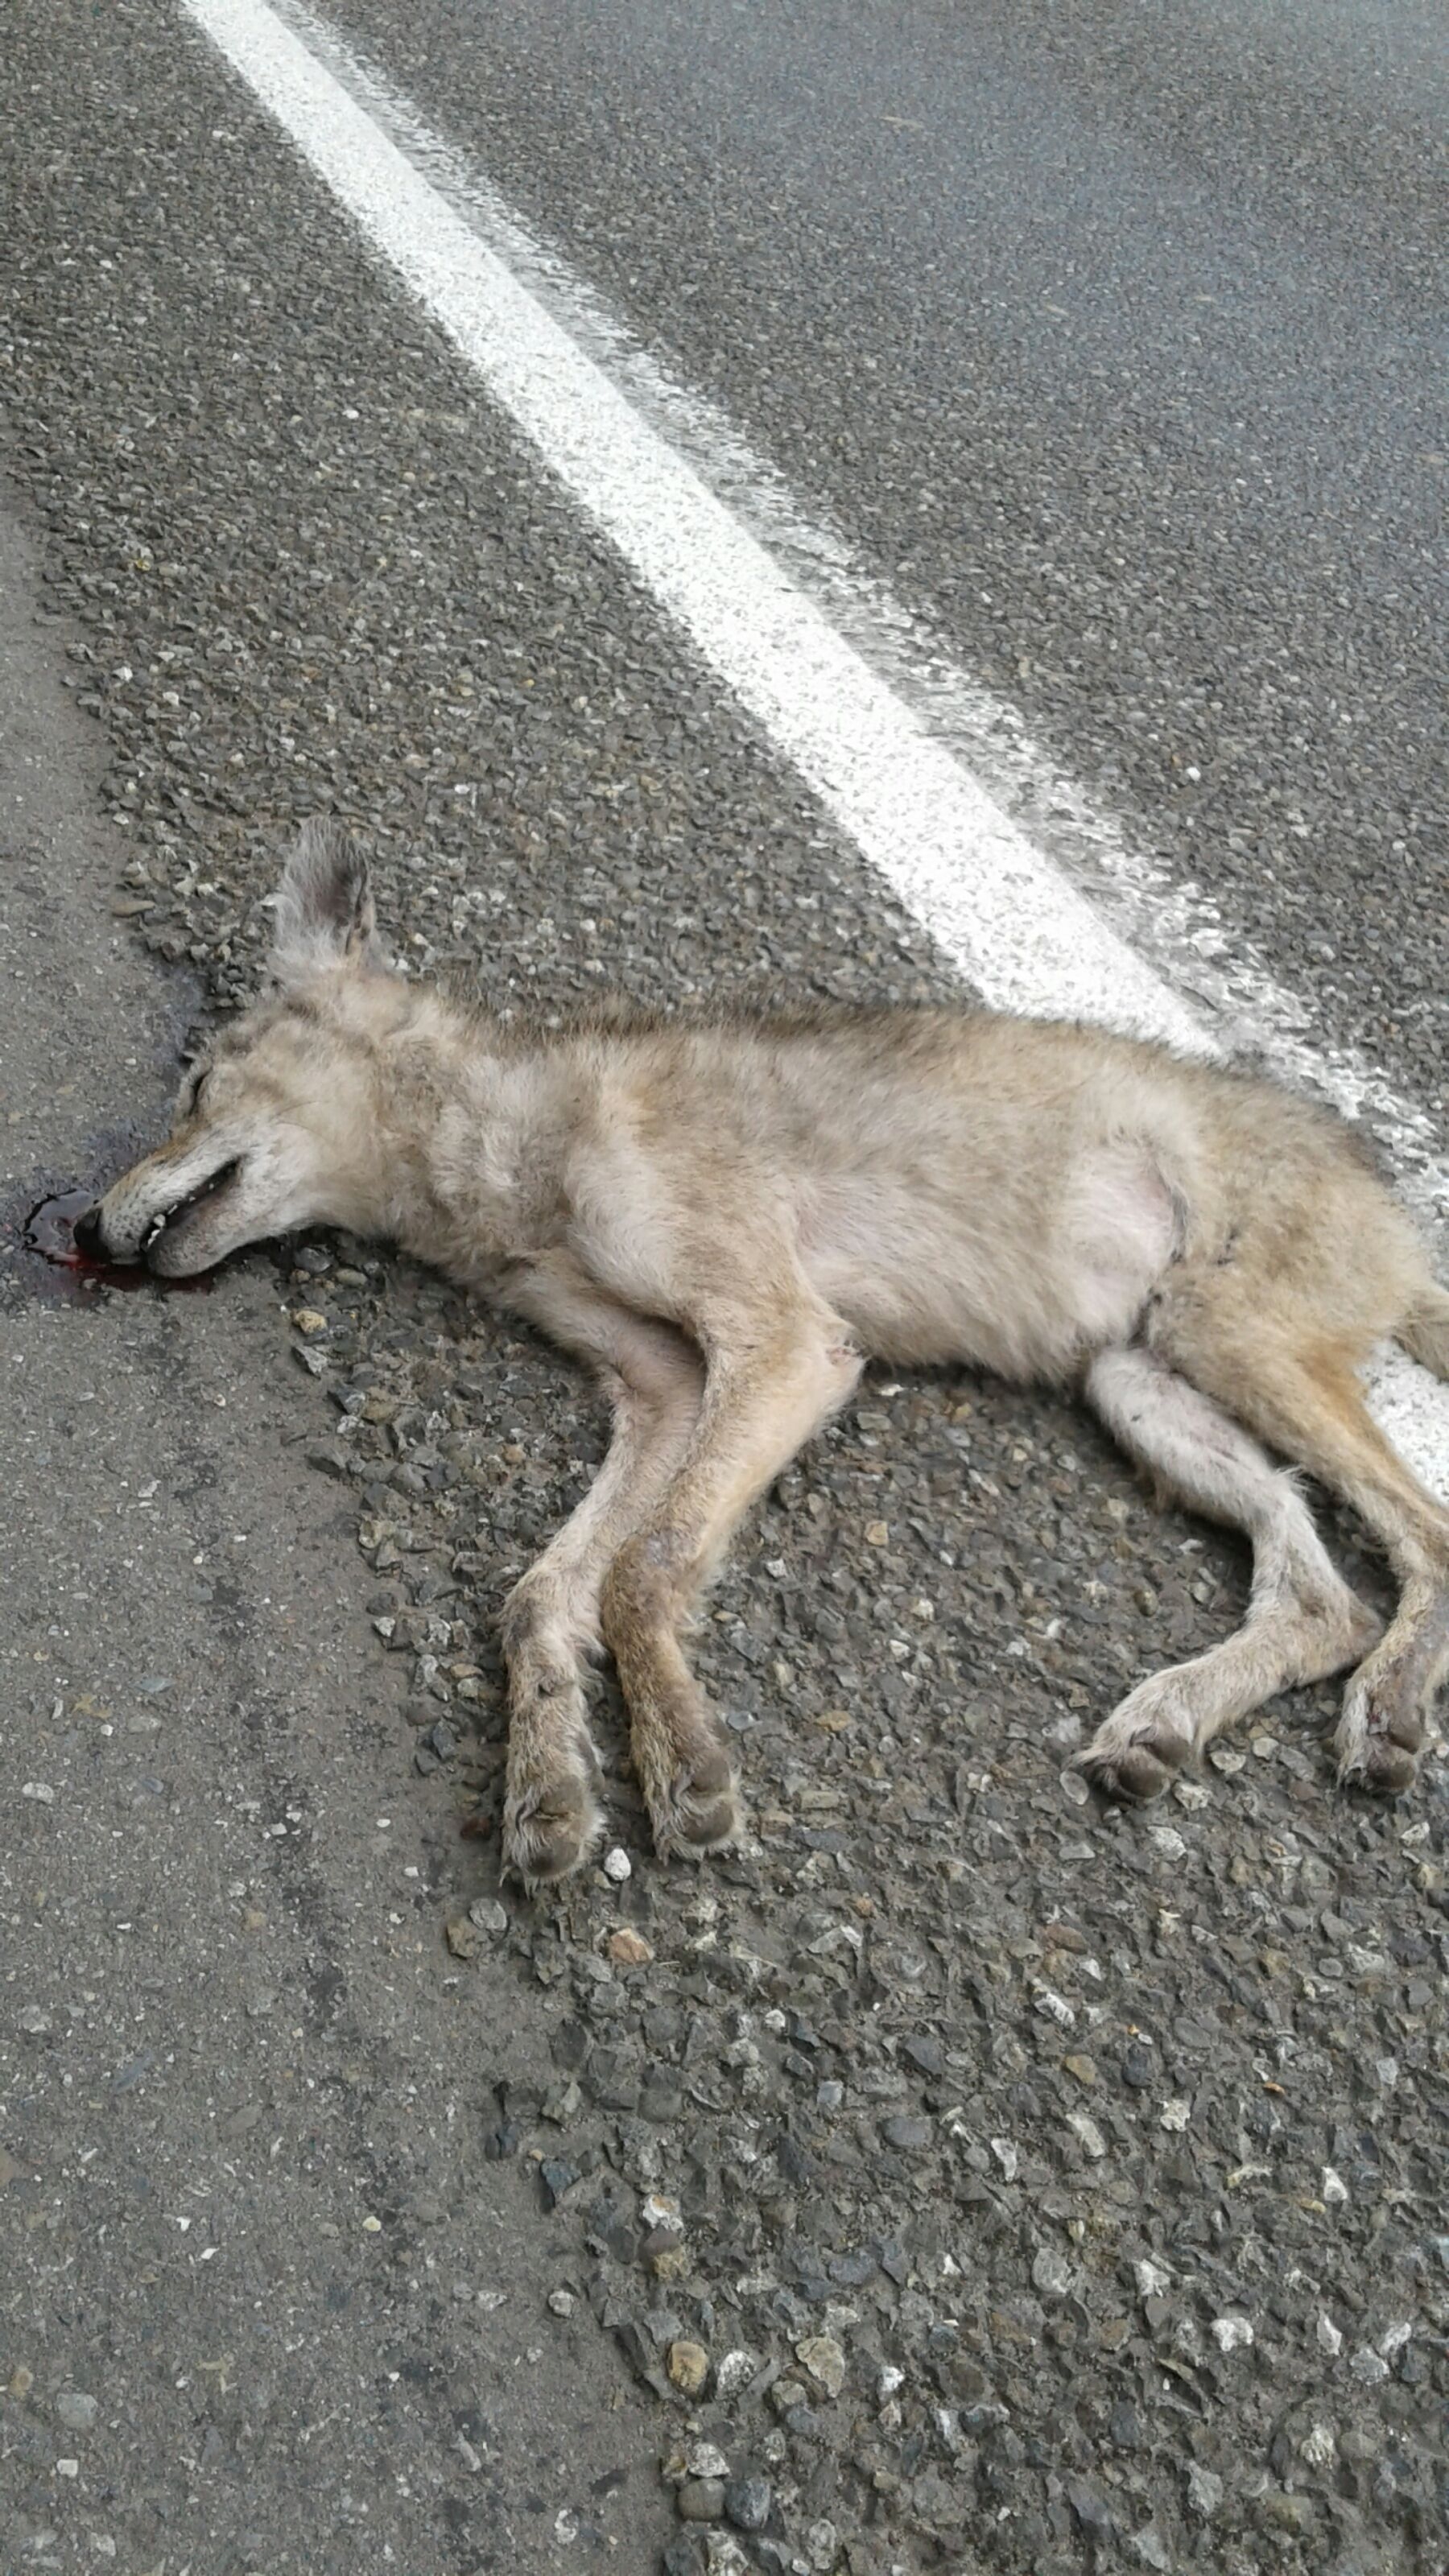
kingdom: Animalia
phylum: Chordata
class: Mammalia
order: Carnivora
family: Canidae
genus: Canis
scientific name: Canis latrans
